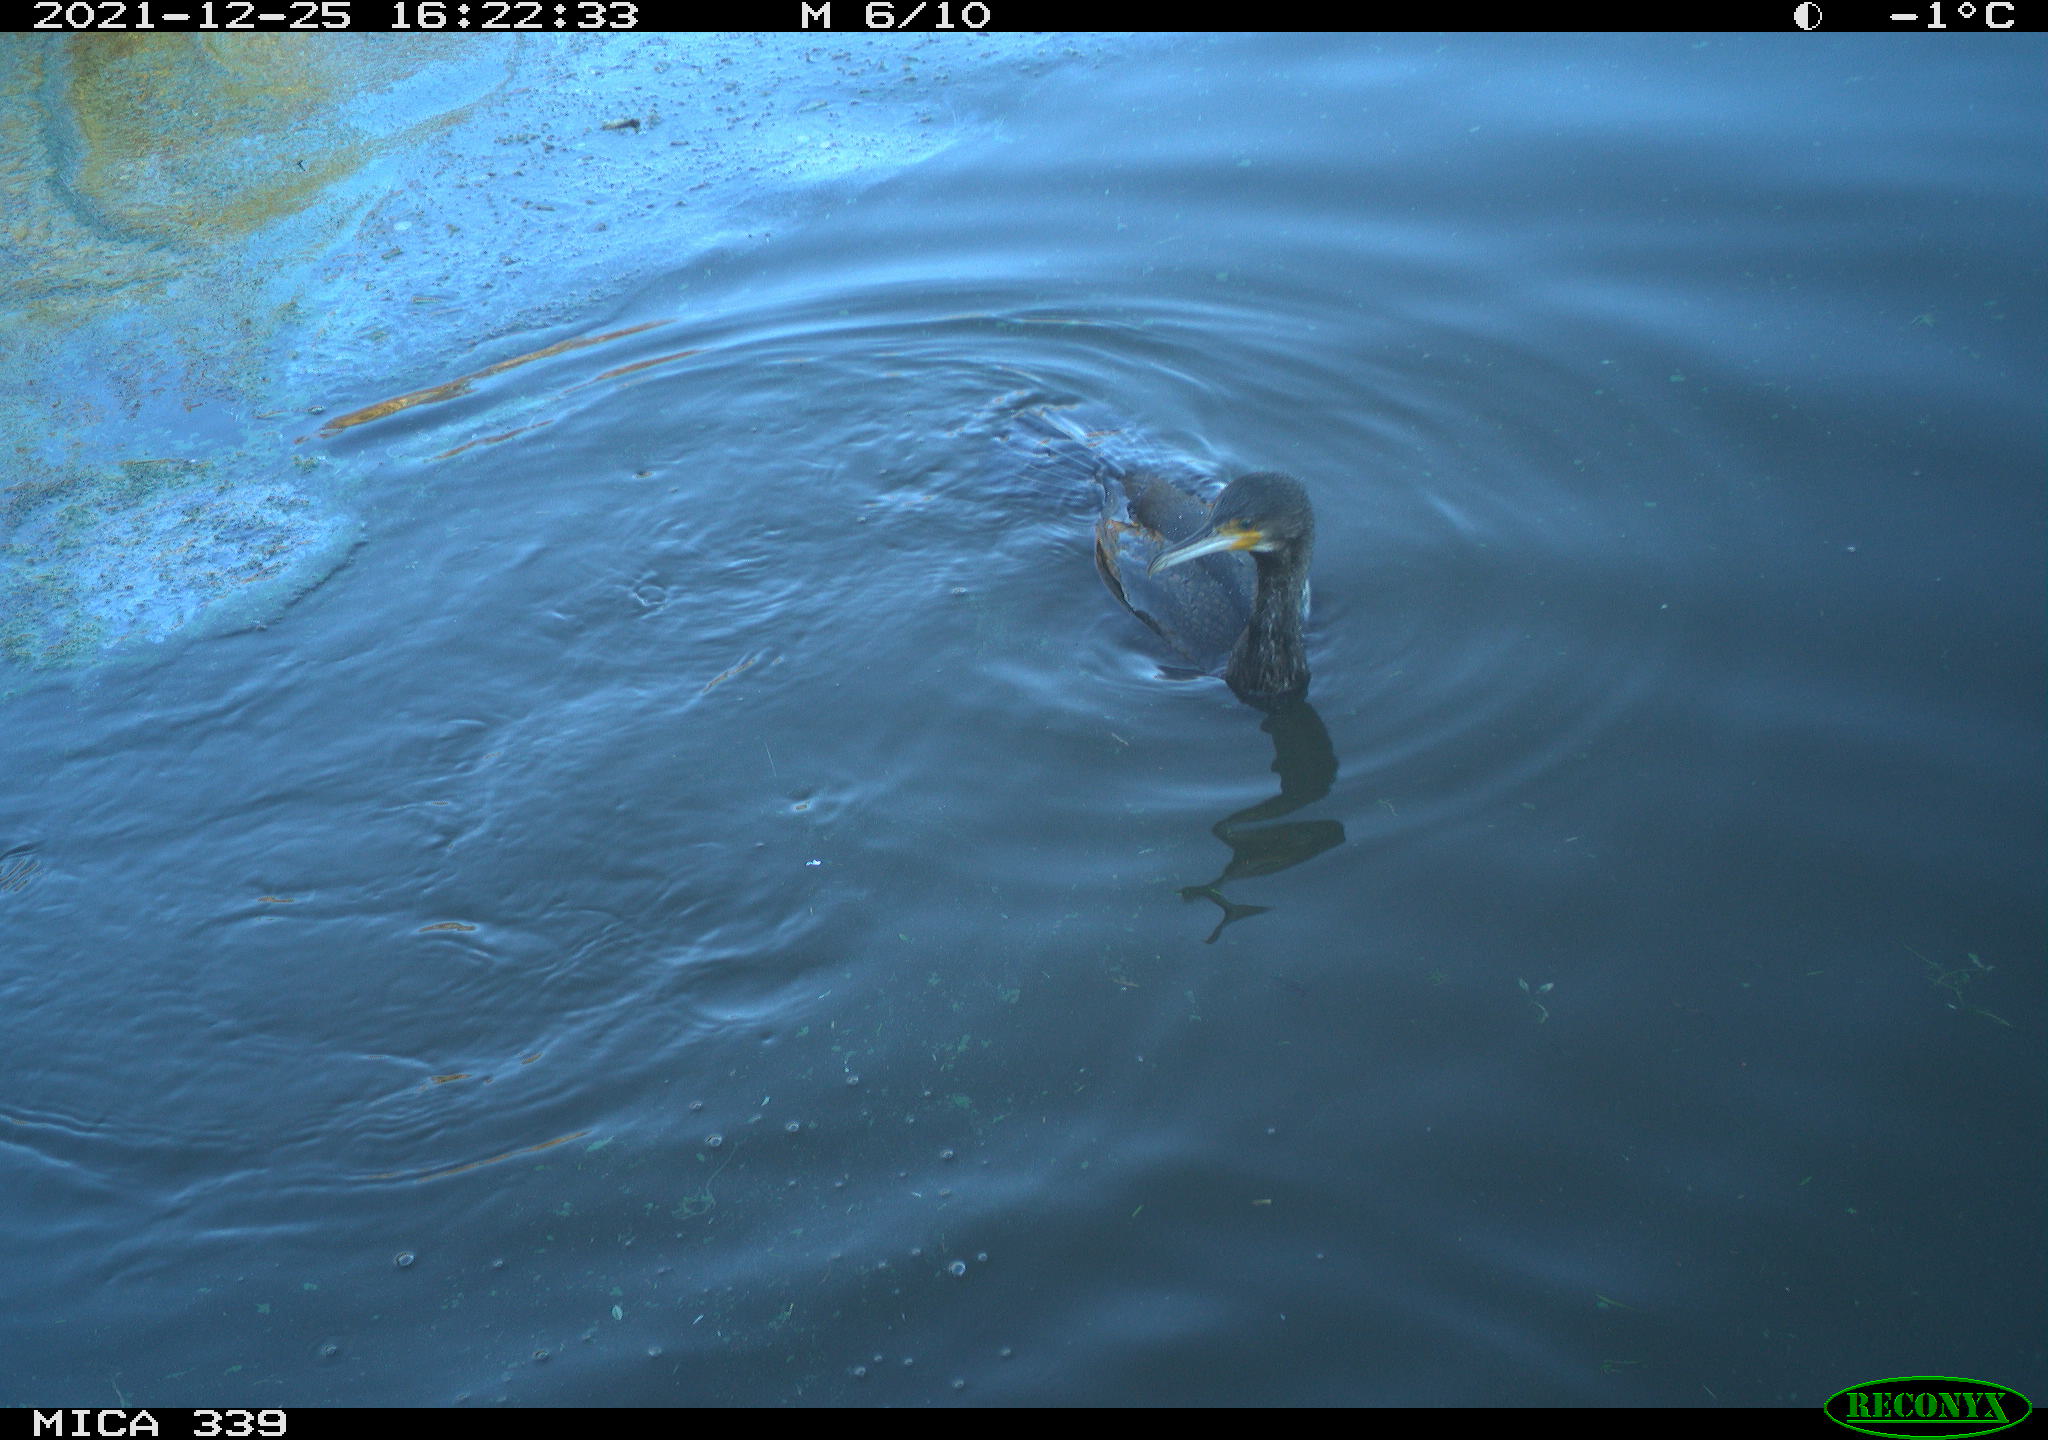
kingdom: Animalia
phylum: Chordata
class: Aves
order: Suliformes
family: Phalacrocoracidae
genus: Phalacrocorax
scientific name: Phalacrocorax carbo
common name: Great cormorant
